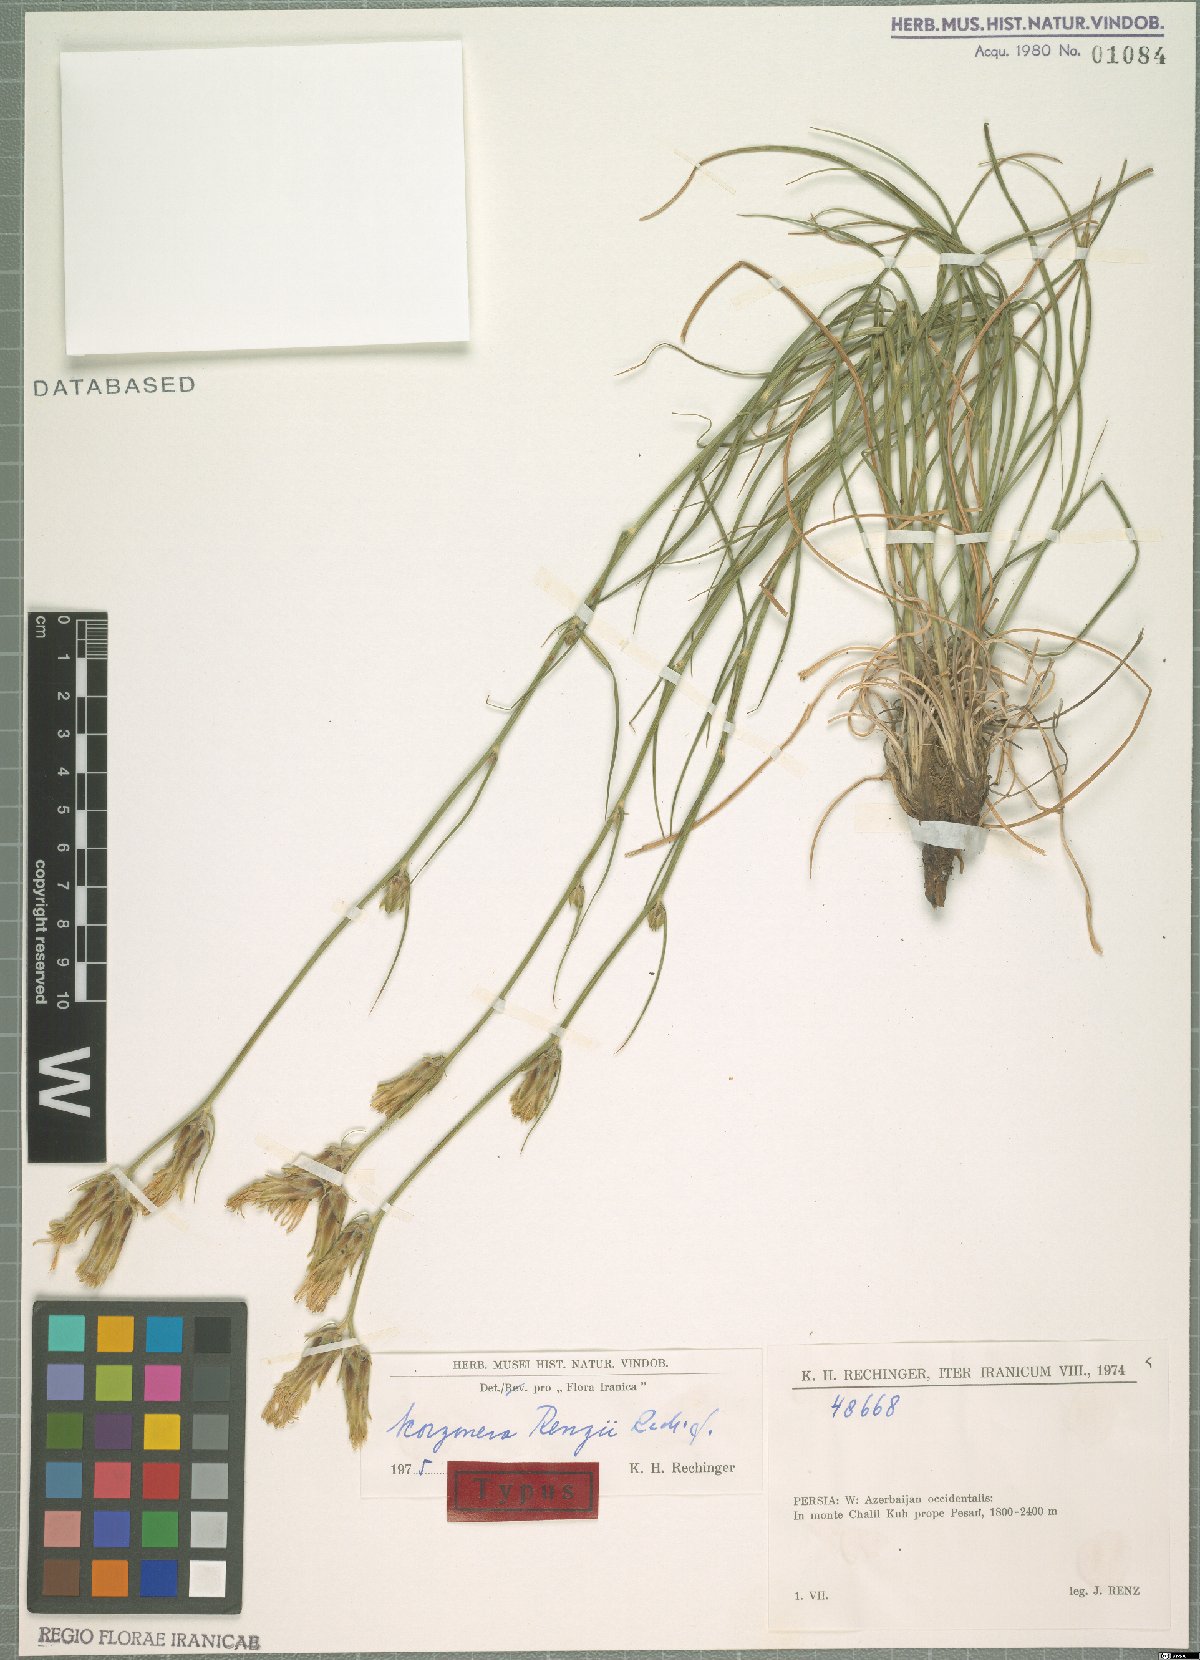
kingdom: Plantae
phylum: Tracheophyta
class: Magnoliopsida
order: Asterales
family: Asteraceae
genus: Candollea
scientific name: Candollea renzii
